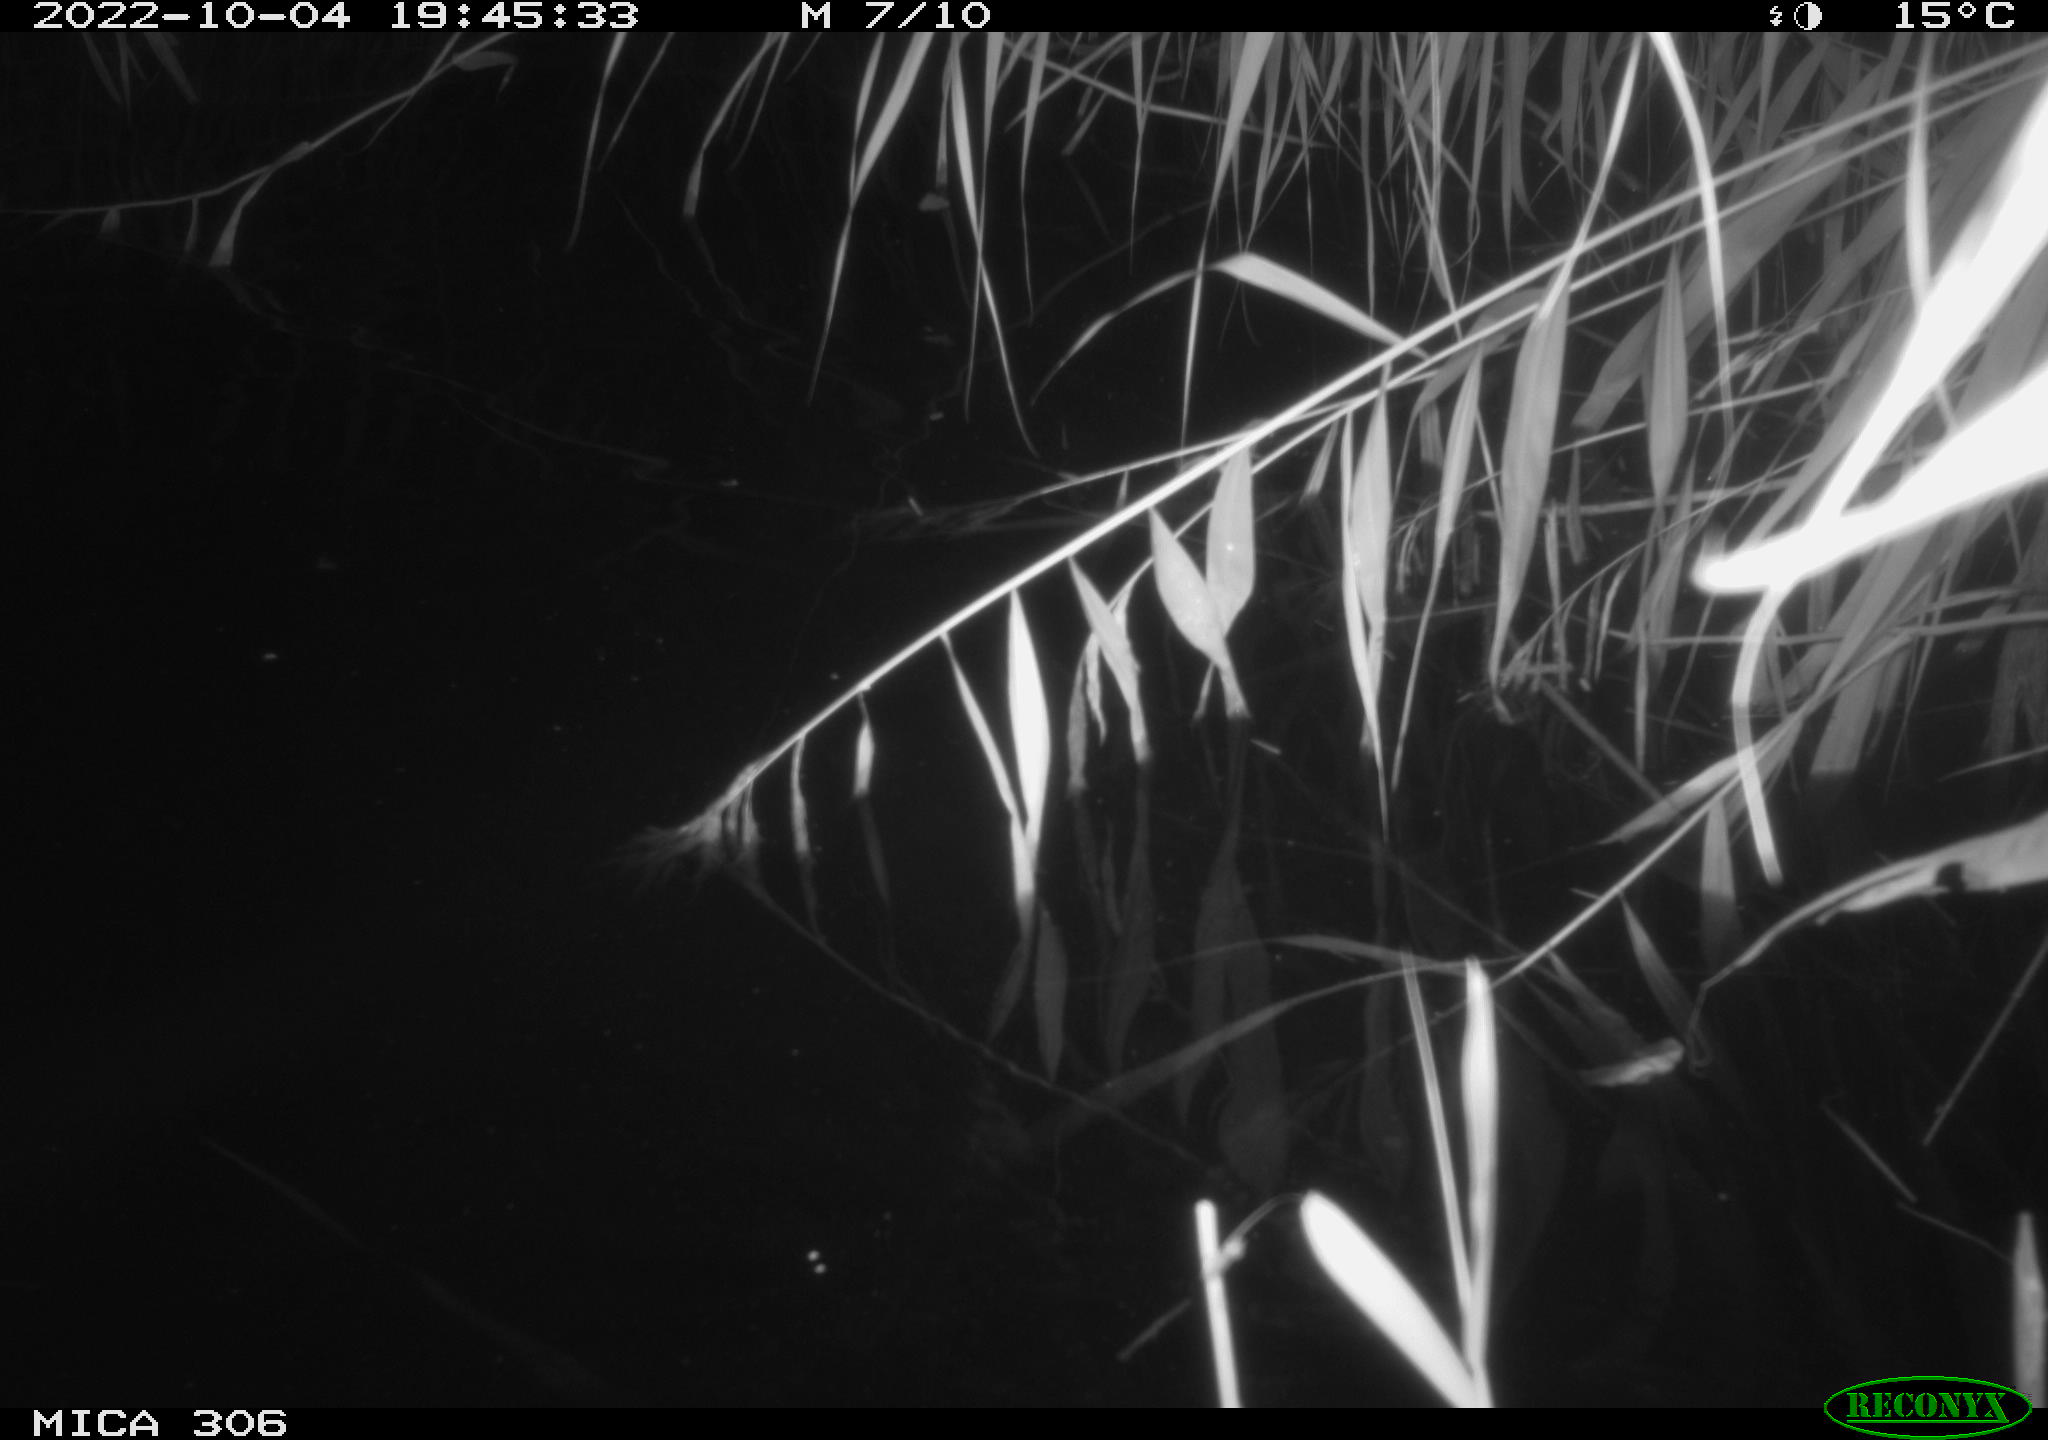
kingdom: Animalia
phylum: Chordata
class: Mammalia
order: Rodentia
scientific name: Rodentia
